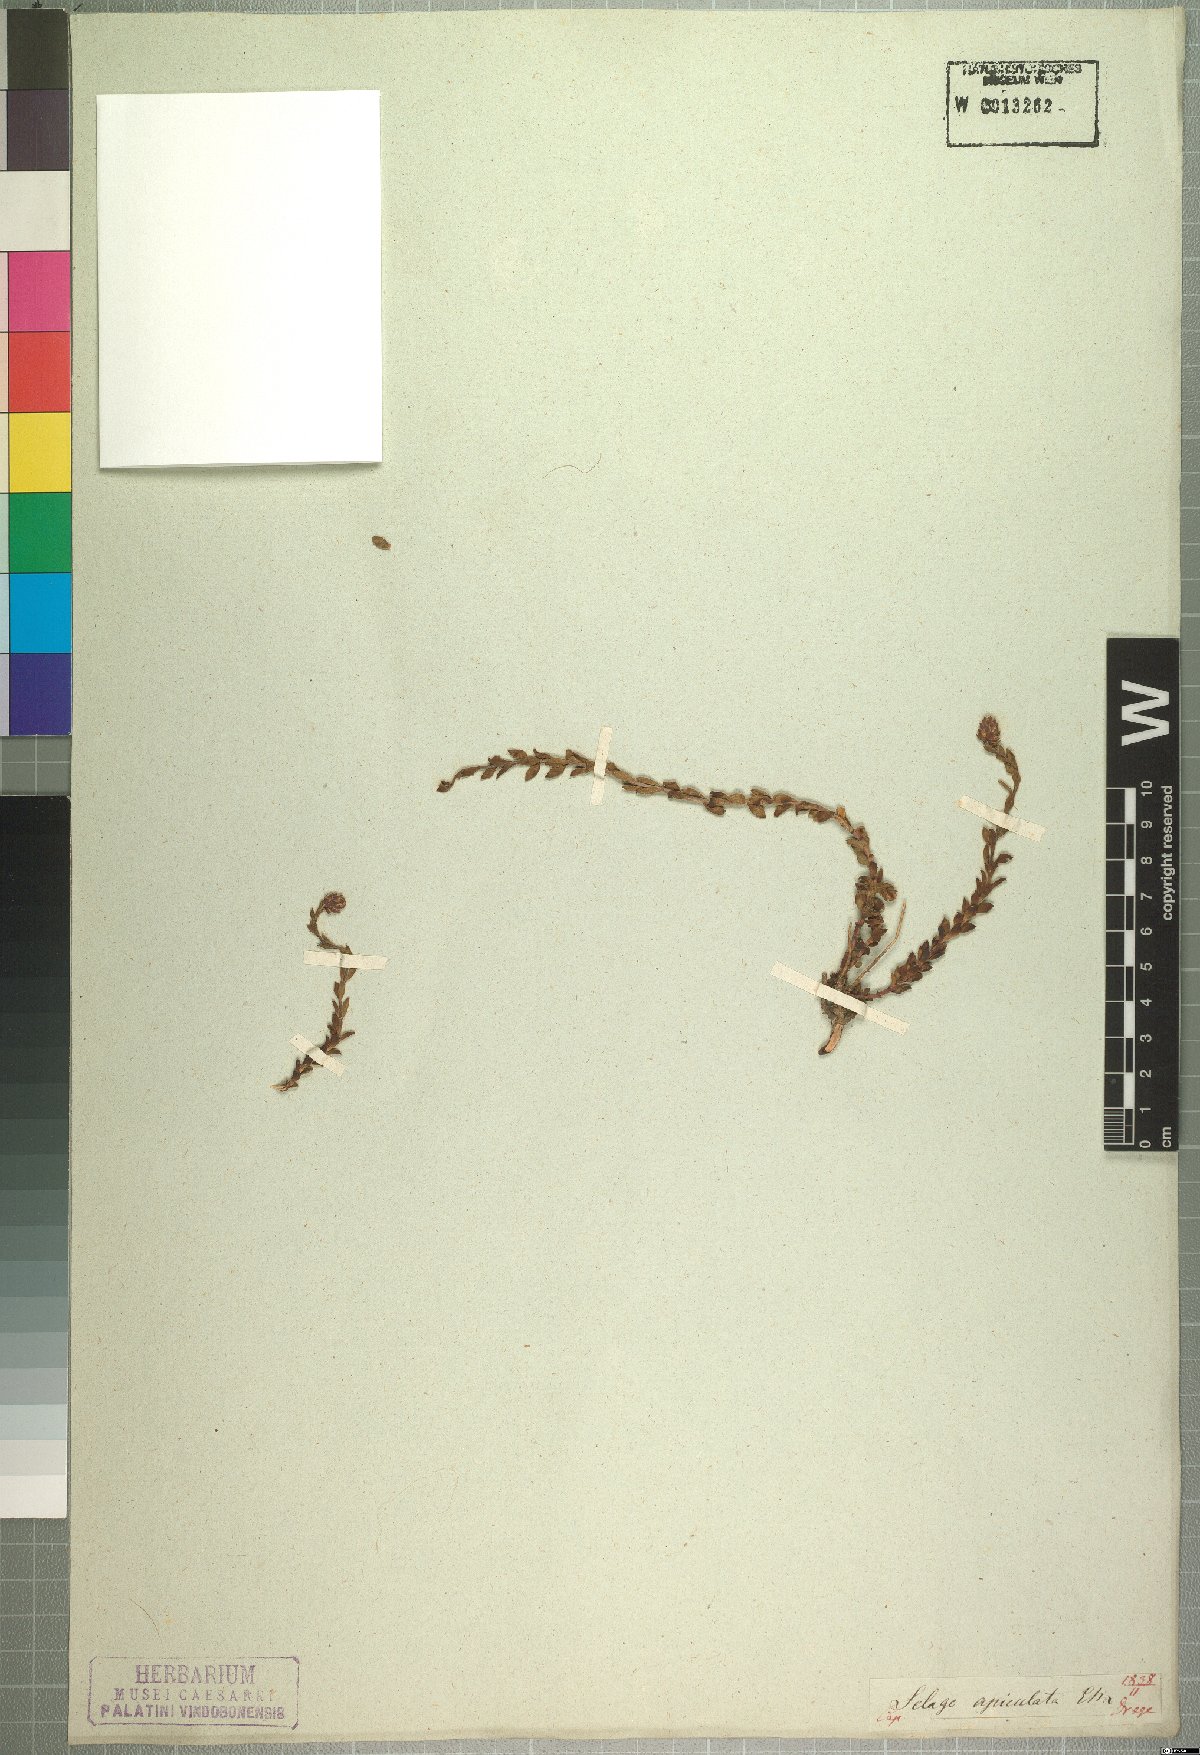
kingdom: Plantae
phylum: Tracheophyta
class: Magnoliopsida
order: Lamiales
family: Scrophulariaceae
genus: Glumicalyx
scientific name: Glumicalyx apiculatus
